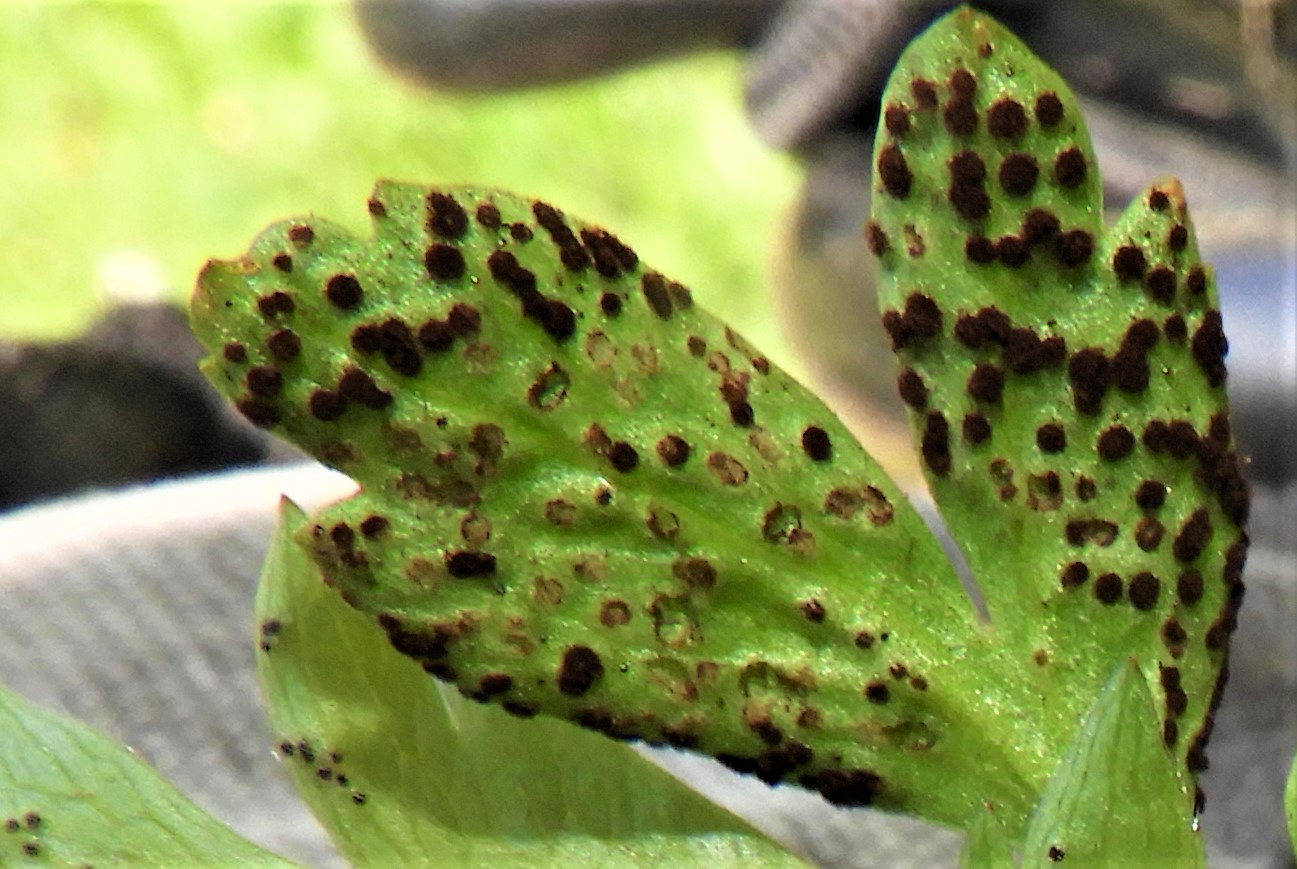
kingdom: Fungi
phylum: Basidiomycota
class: Pucciniomycetes
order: Pucciniales
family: Tranzscheliaceae
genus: Tranzschelia
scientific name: Tranzschelia anemones
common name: anemone-knæksporerust
